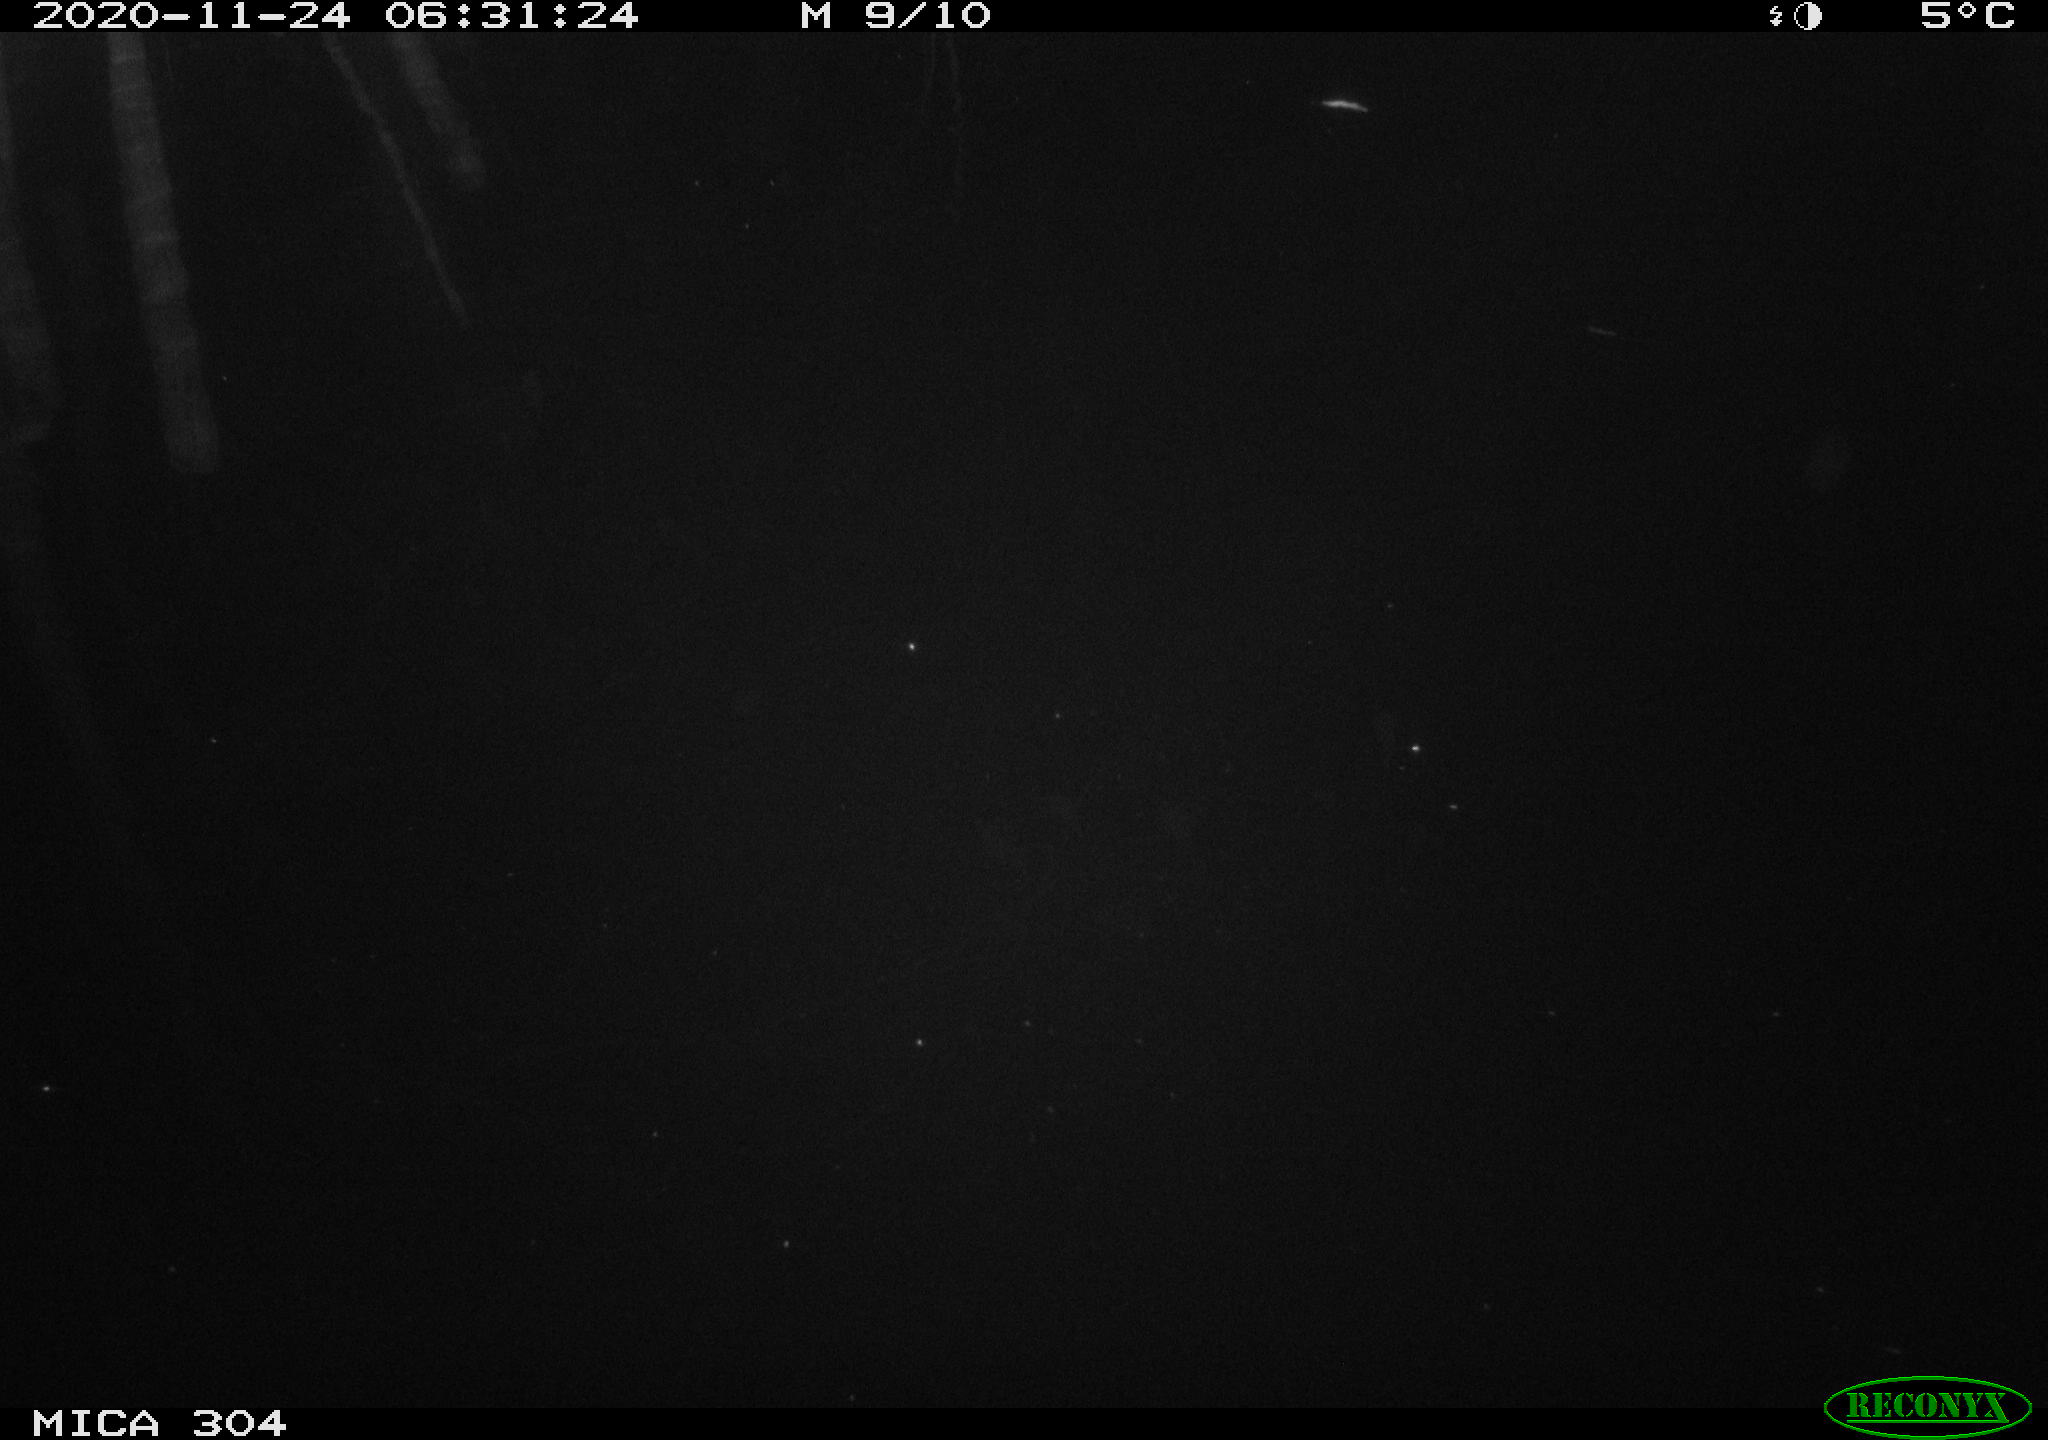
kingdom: Animalia
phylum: Chordata
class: Mammalia
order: Rodentia
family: Muridae
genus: Rattus
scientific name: Rattus norvegicus
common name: Brown rat
